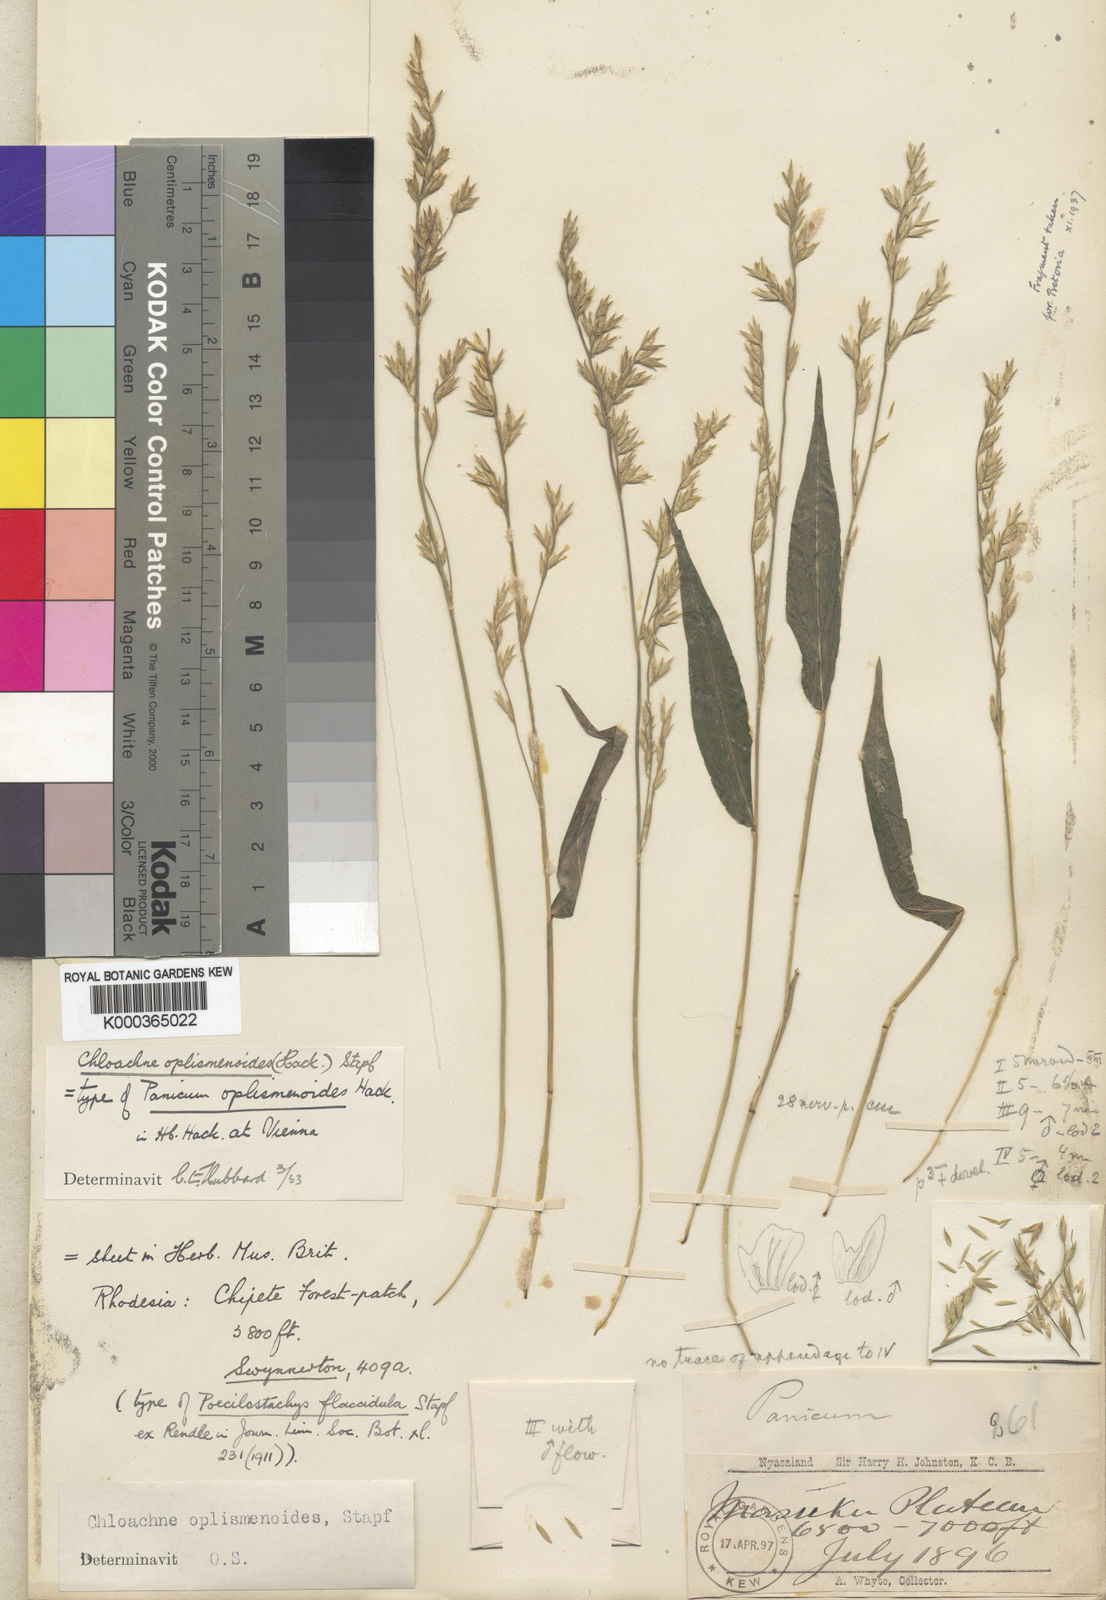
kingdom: Plantae
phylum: Tracheophyta
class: Liliopsida
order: Poales
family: Poaceae
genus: Poecilostachys
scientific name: Poecilostachys oplismenoides
